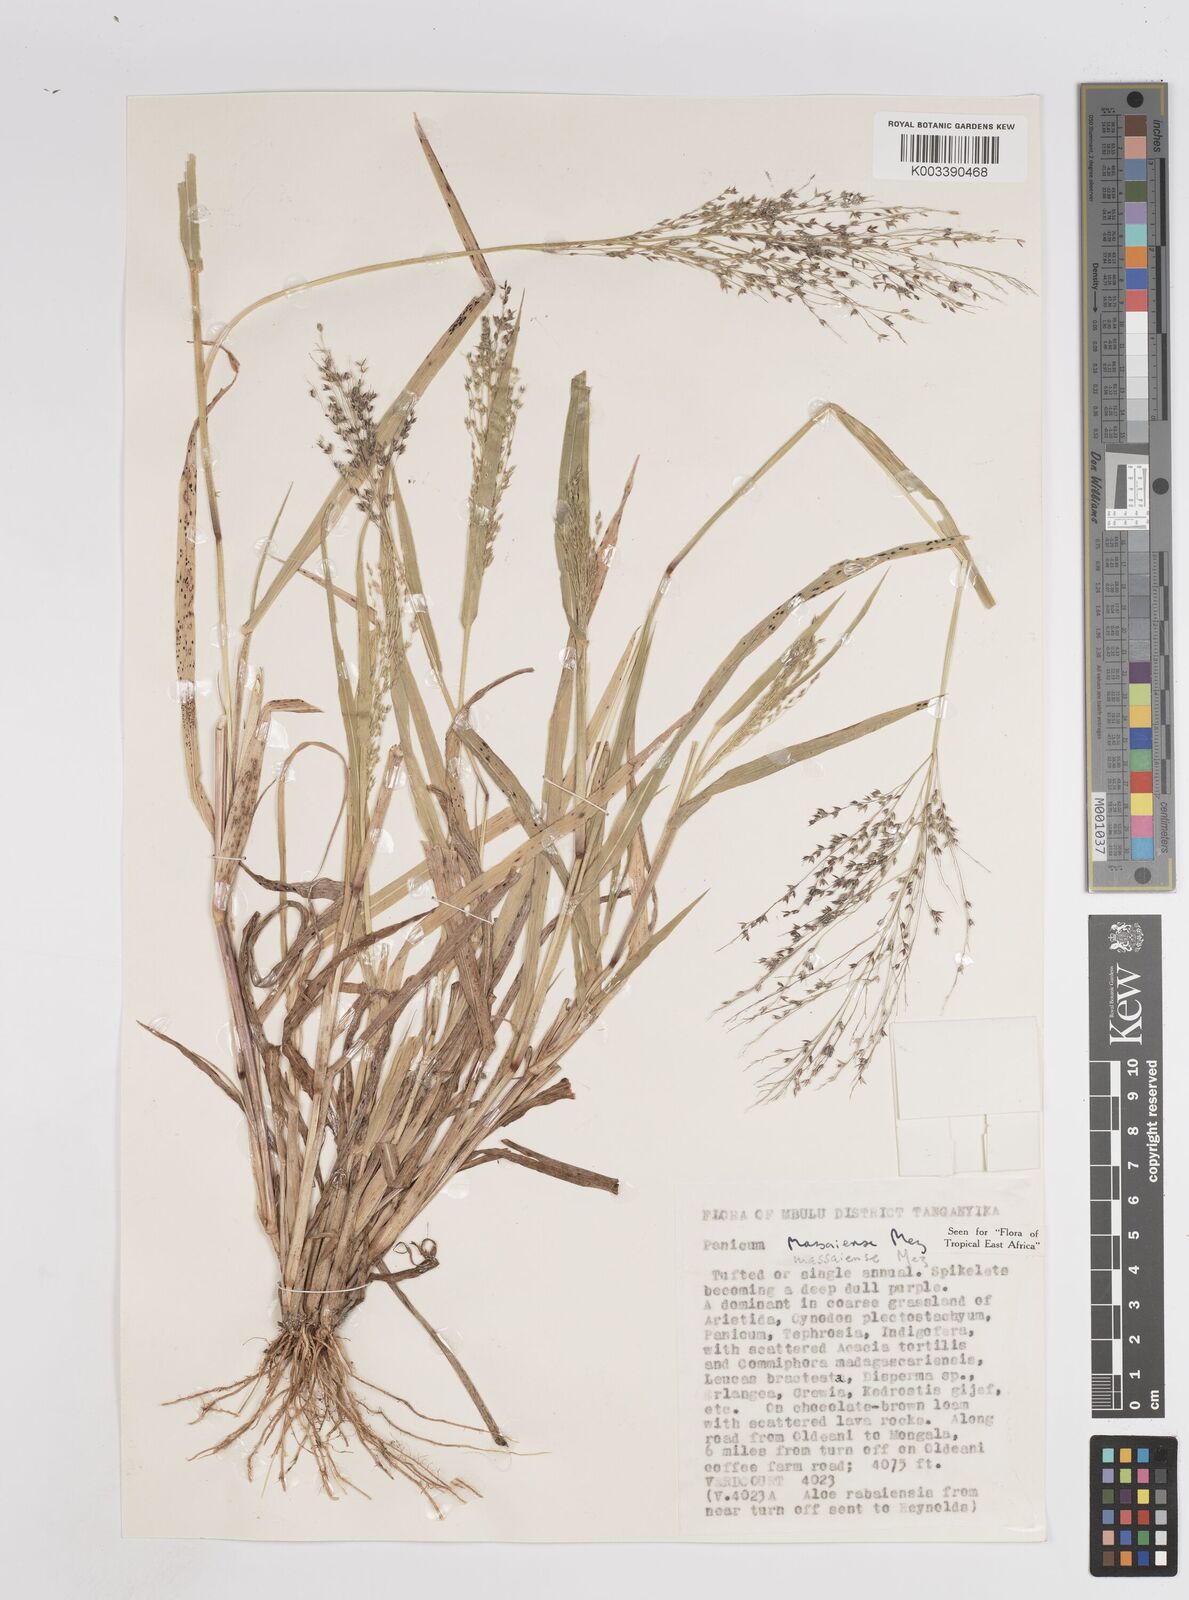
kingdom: Plantae
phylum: Tracheophyta
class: Liliopsida
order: Poales
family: Poaceae
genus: Panicum
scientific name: Panicum massaiense
